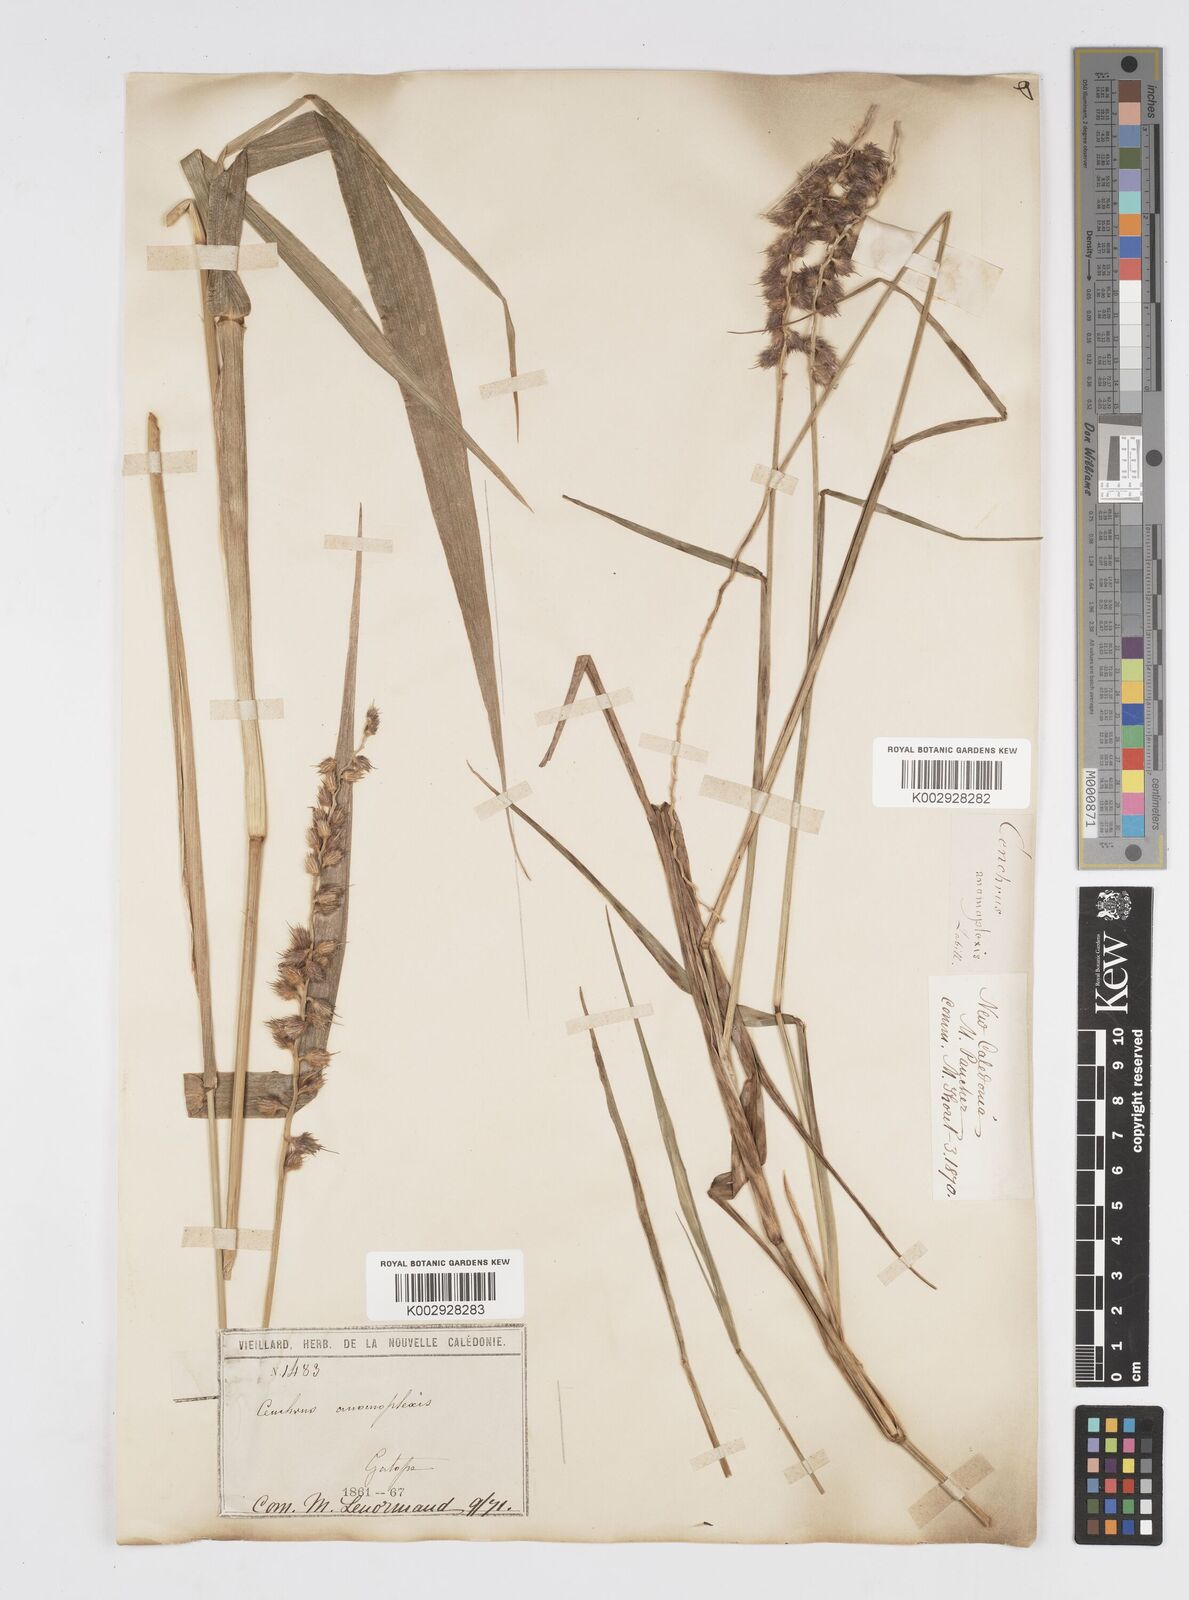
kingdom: Plantae
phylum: Tracheophyta
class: Liliopsida
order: Poales
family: Poaceae
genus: Cenchrus
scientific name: Cenchrus caliculatus
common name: Large bur grass
